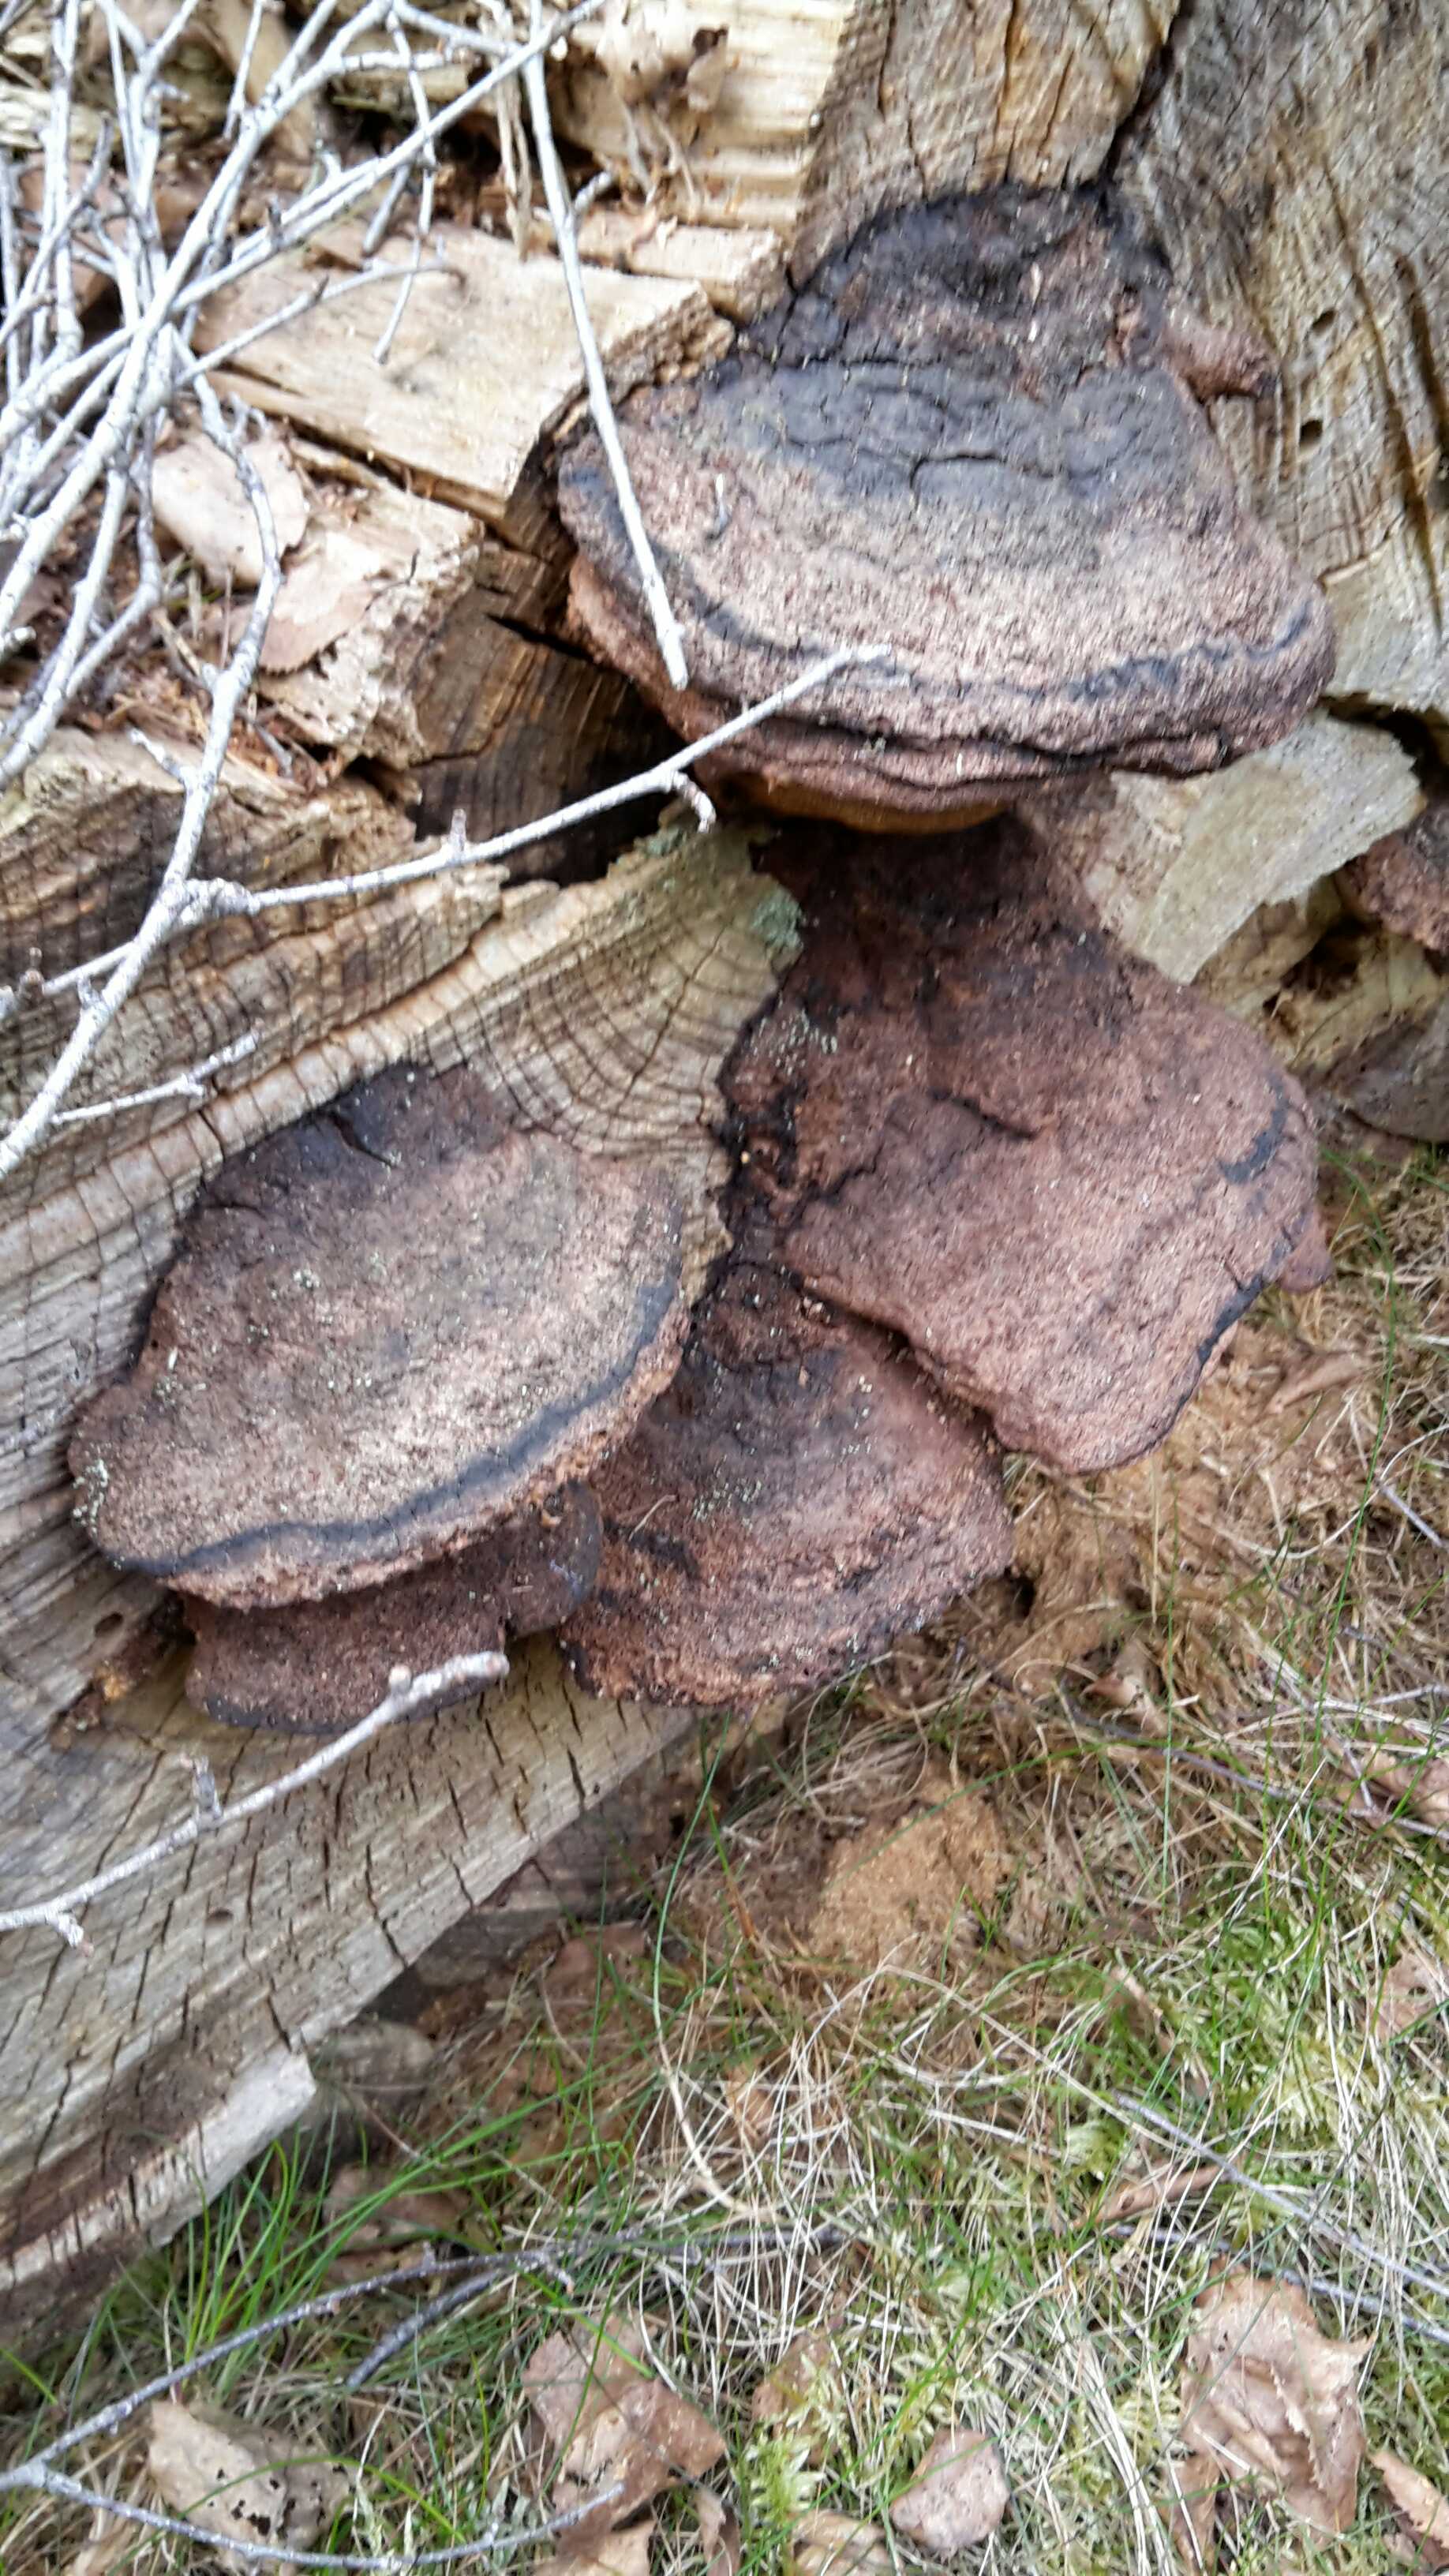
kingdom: Fungi
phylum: Basidiomycota
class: Agaricomycetes
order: Polyporales
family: Ischnodermataceae
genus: Ischnoderma
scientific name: Ischnoderma benzoinum
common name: gran-tjæreporesvamp
